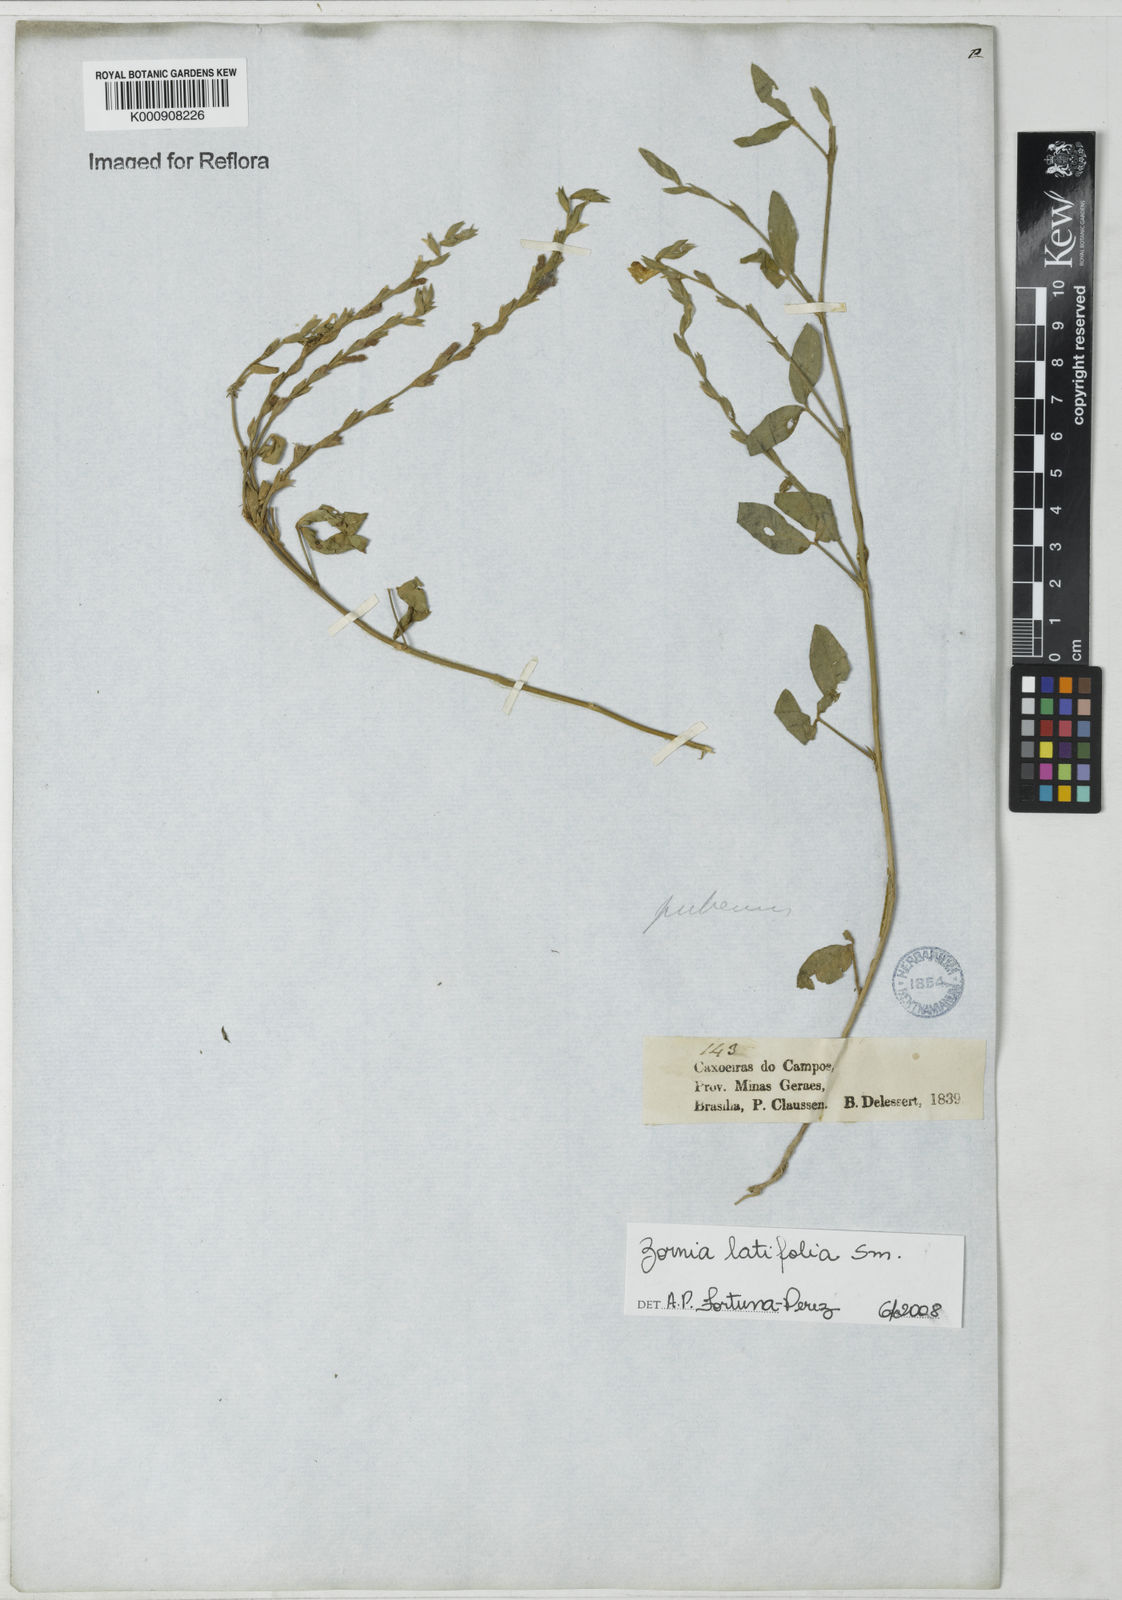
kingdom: Plantae
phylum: Tracheophyta
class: Magnoliopsida
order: Fabales
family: Fabaceae
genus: Zornia
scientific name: Zornia latifolia
